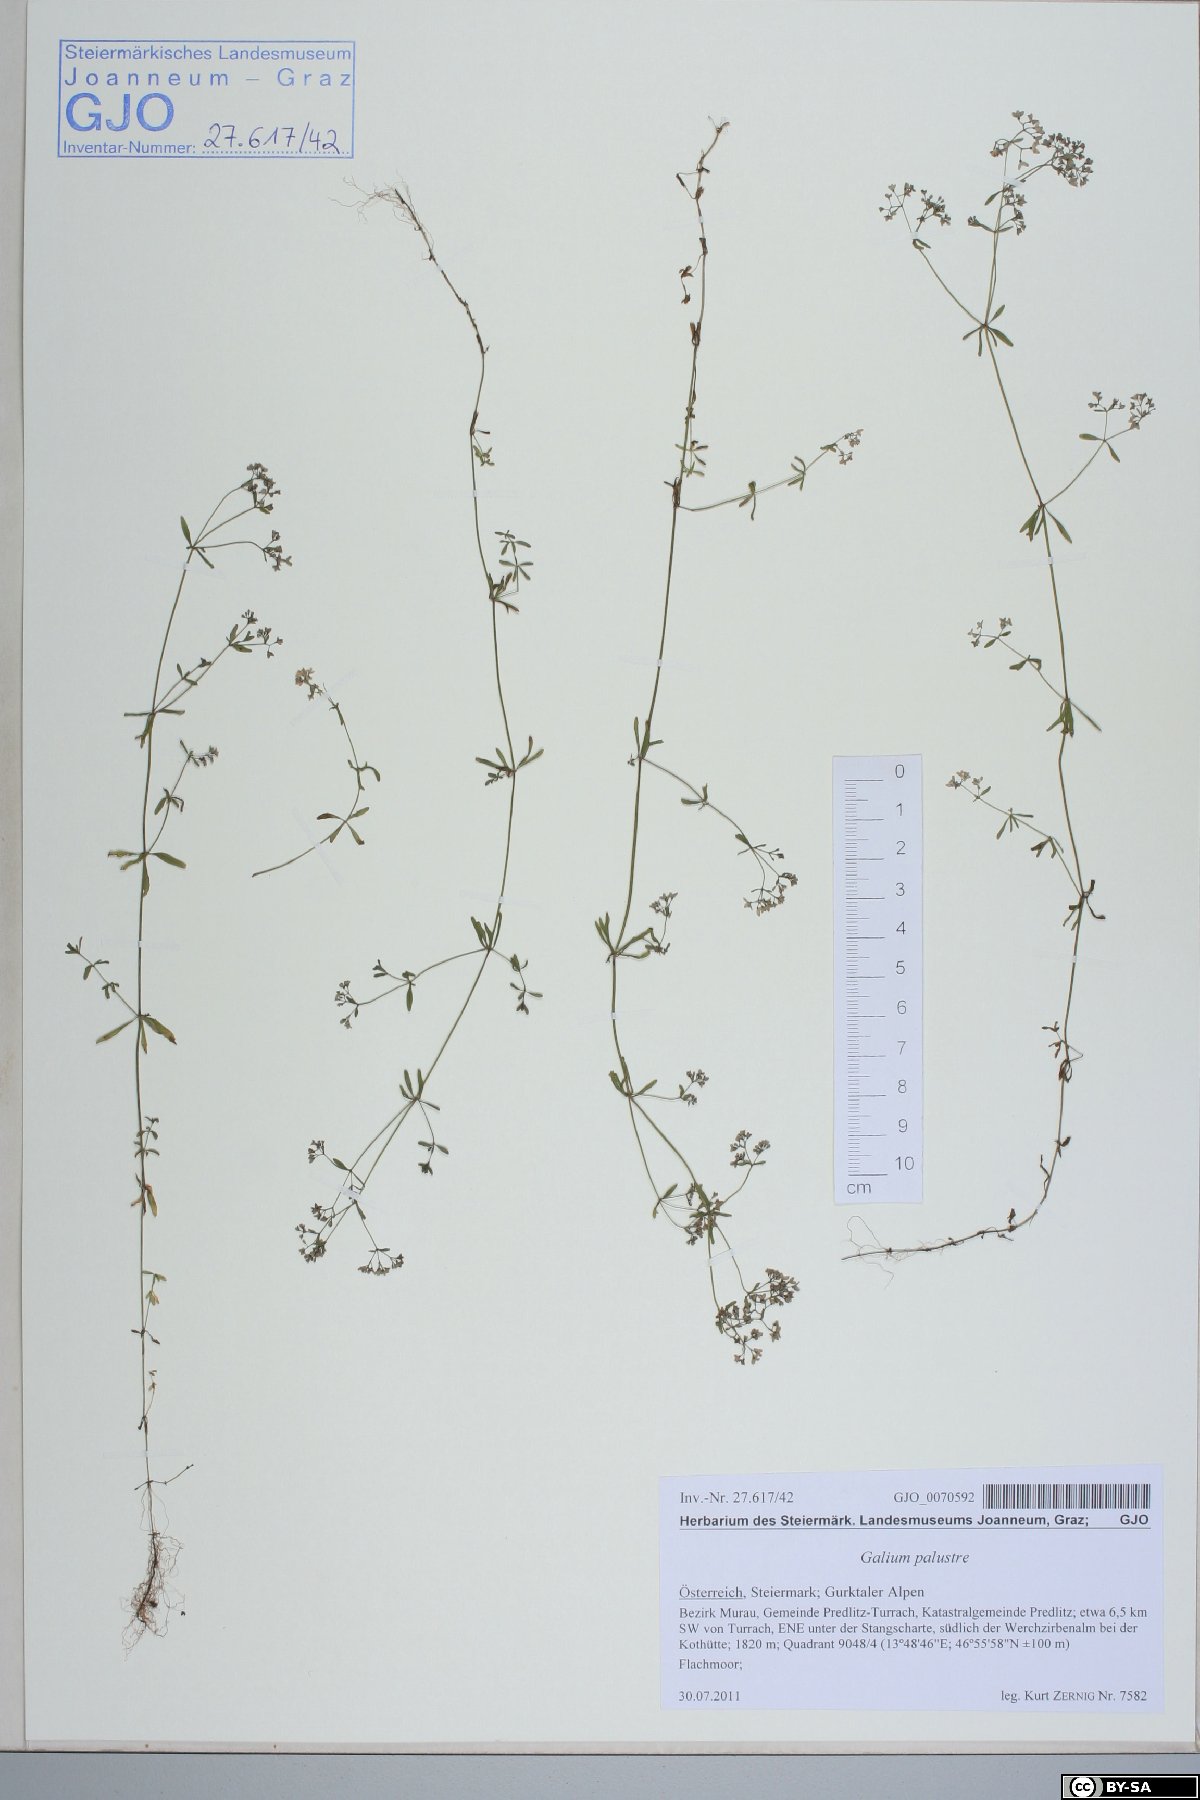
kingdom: Plantae
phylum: Tracheophyta
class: Magnoliopsida
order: Gentianales
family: Rubiaceae
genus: Galium
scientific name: Galium palustre
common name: Common marsh-bedstraw
